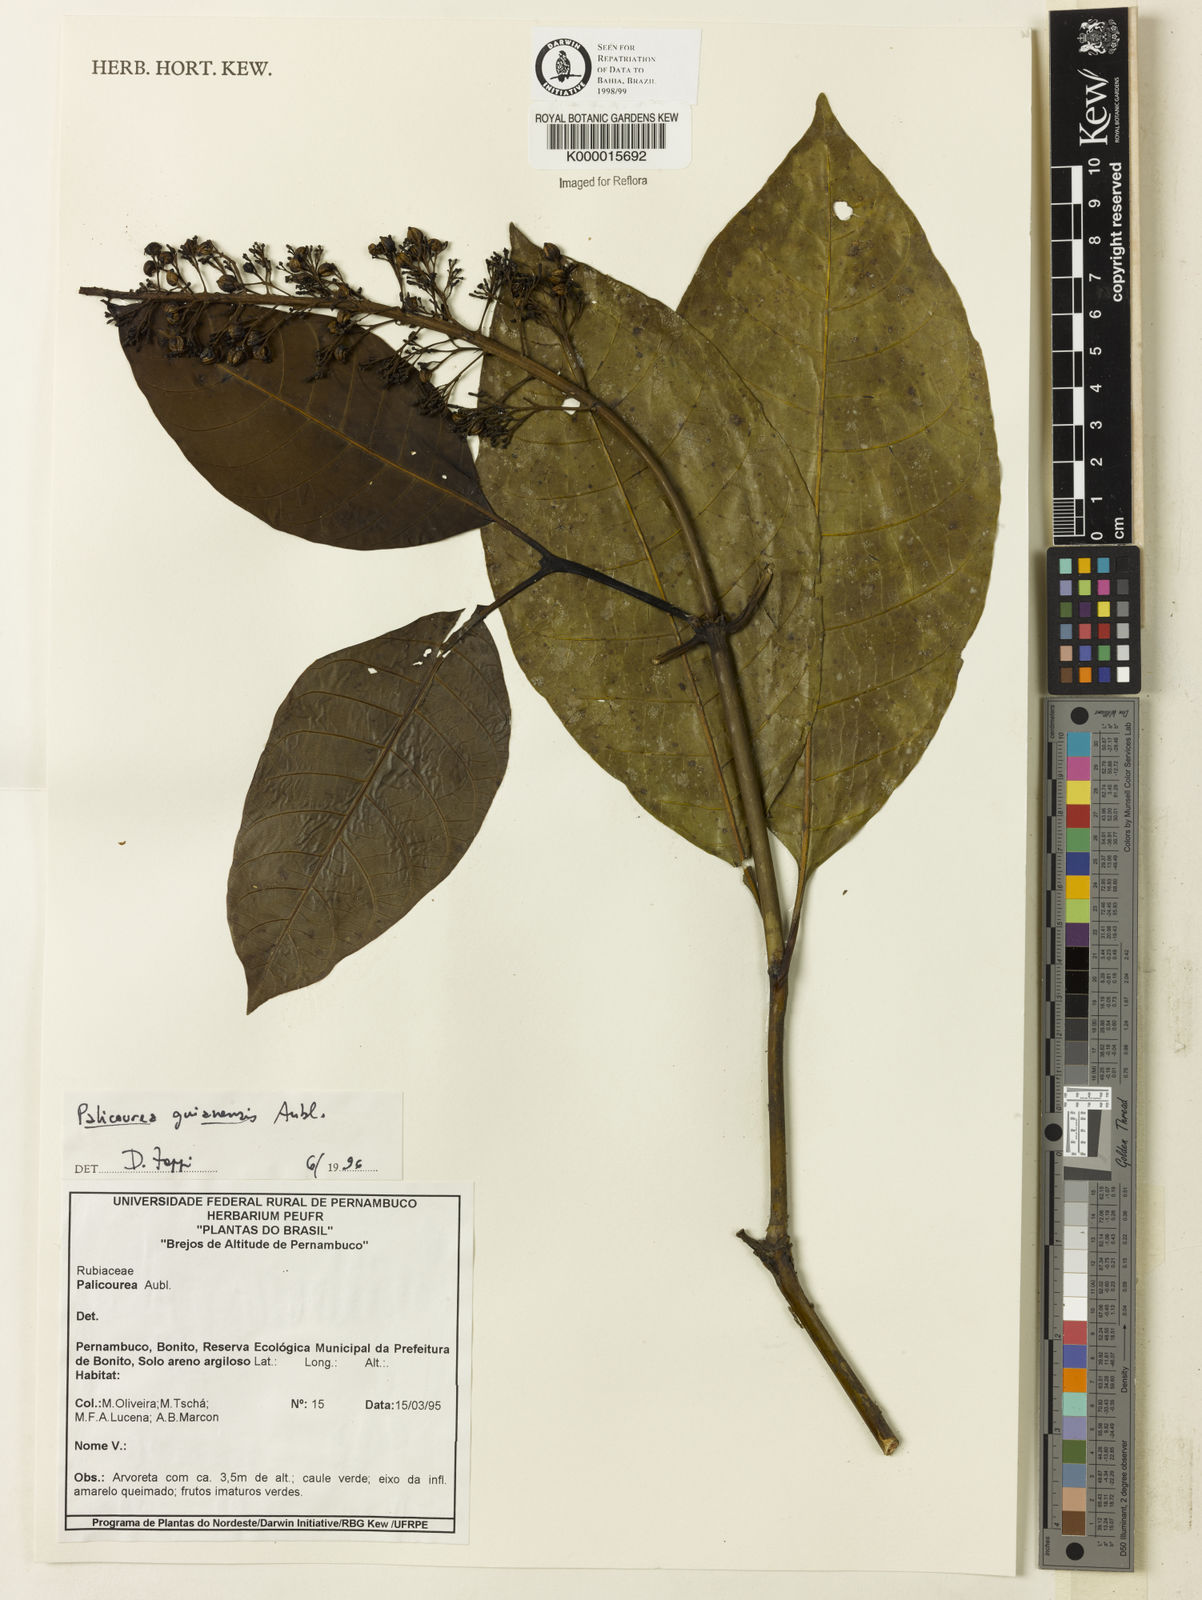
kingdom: Plantae
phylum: Tracheophyta
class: Magnoliopsida
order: Gentianales
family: Rubiaceae
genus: Palicourea
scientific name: Palicourea guianensis
